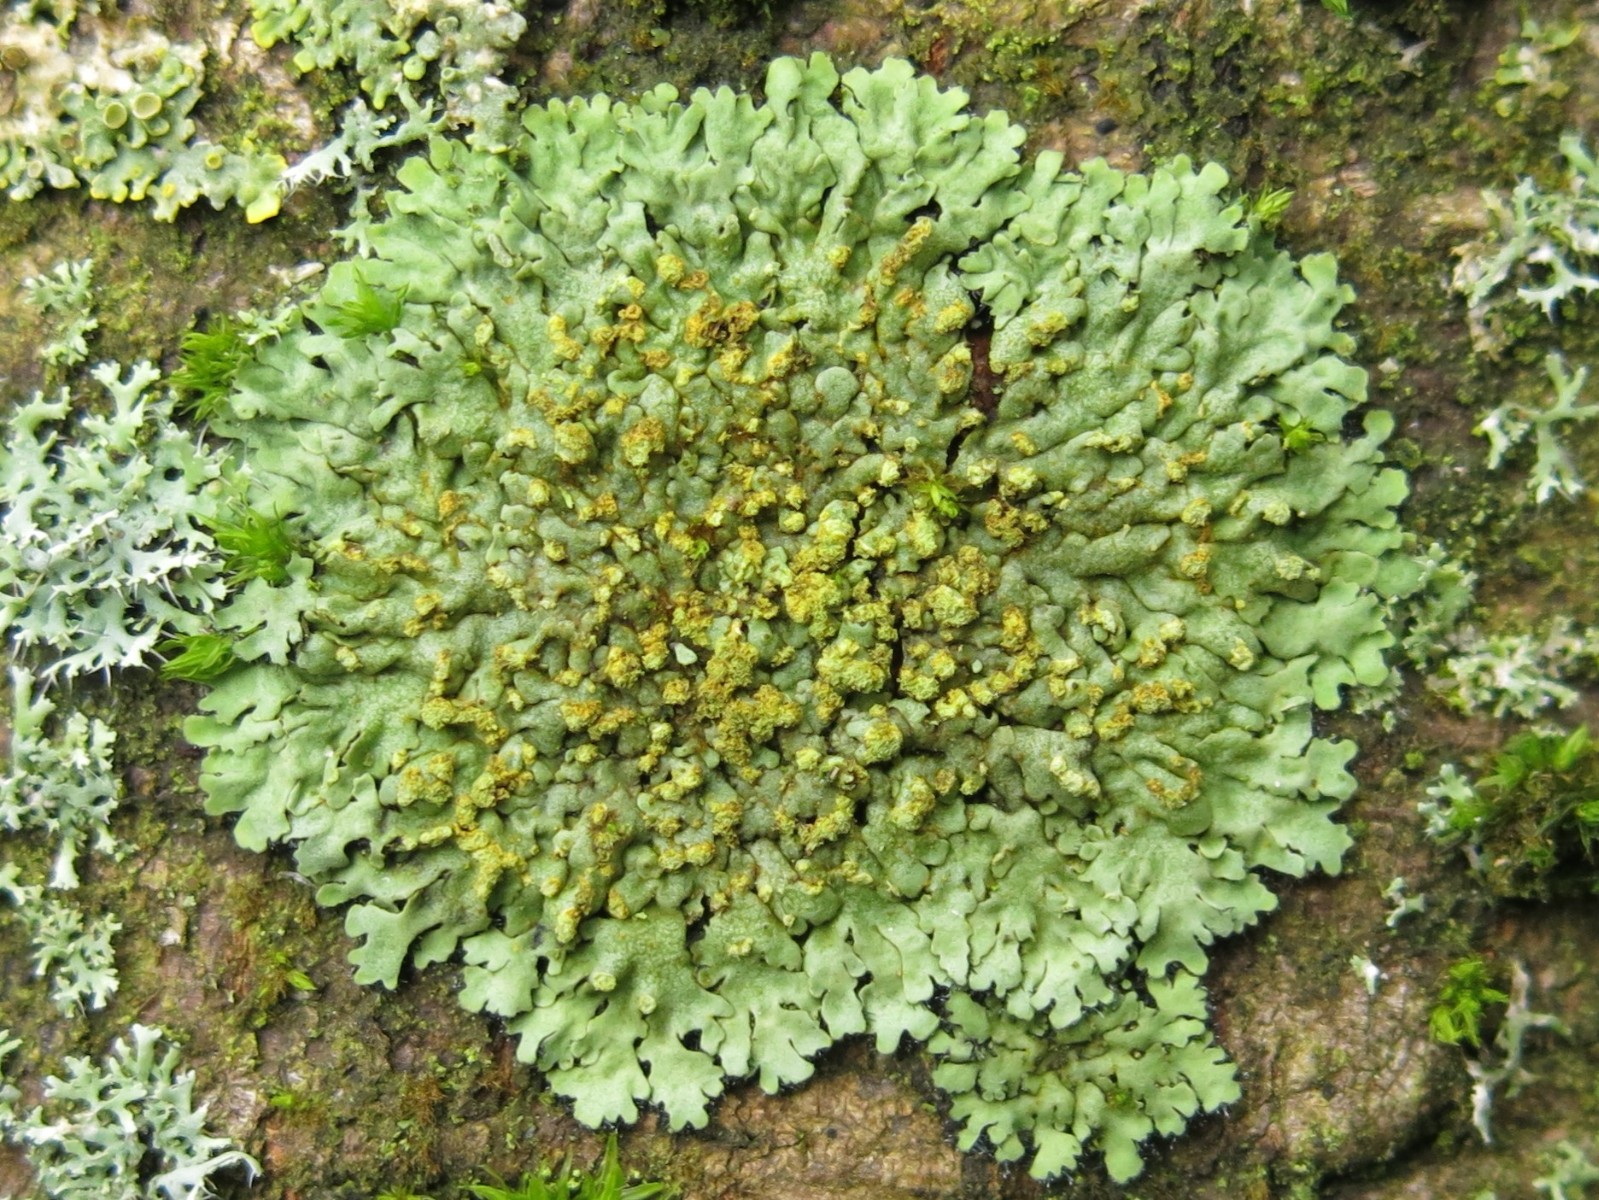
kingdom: Fungi
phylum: Ascomycota
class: Lecanoromycetes
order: Caliciales
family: Physciaceae
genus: Phaeophyscia
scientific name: Phaeophyscia orbicularis
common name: grågrøn rosetlav
